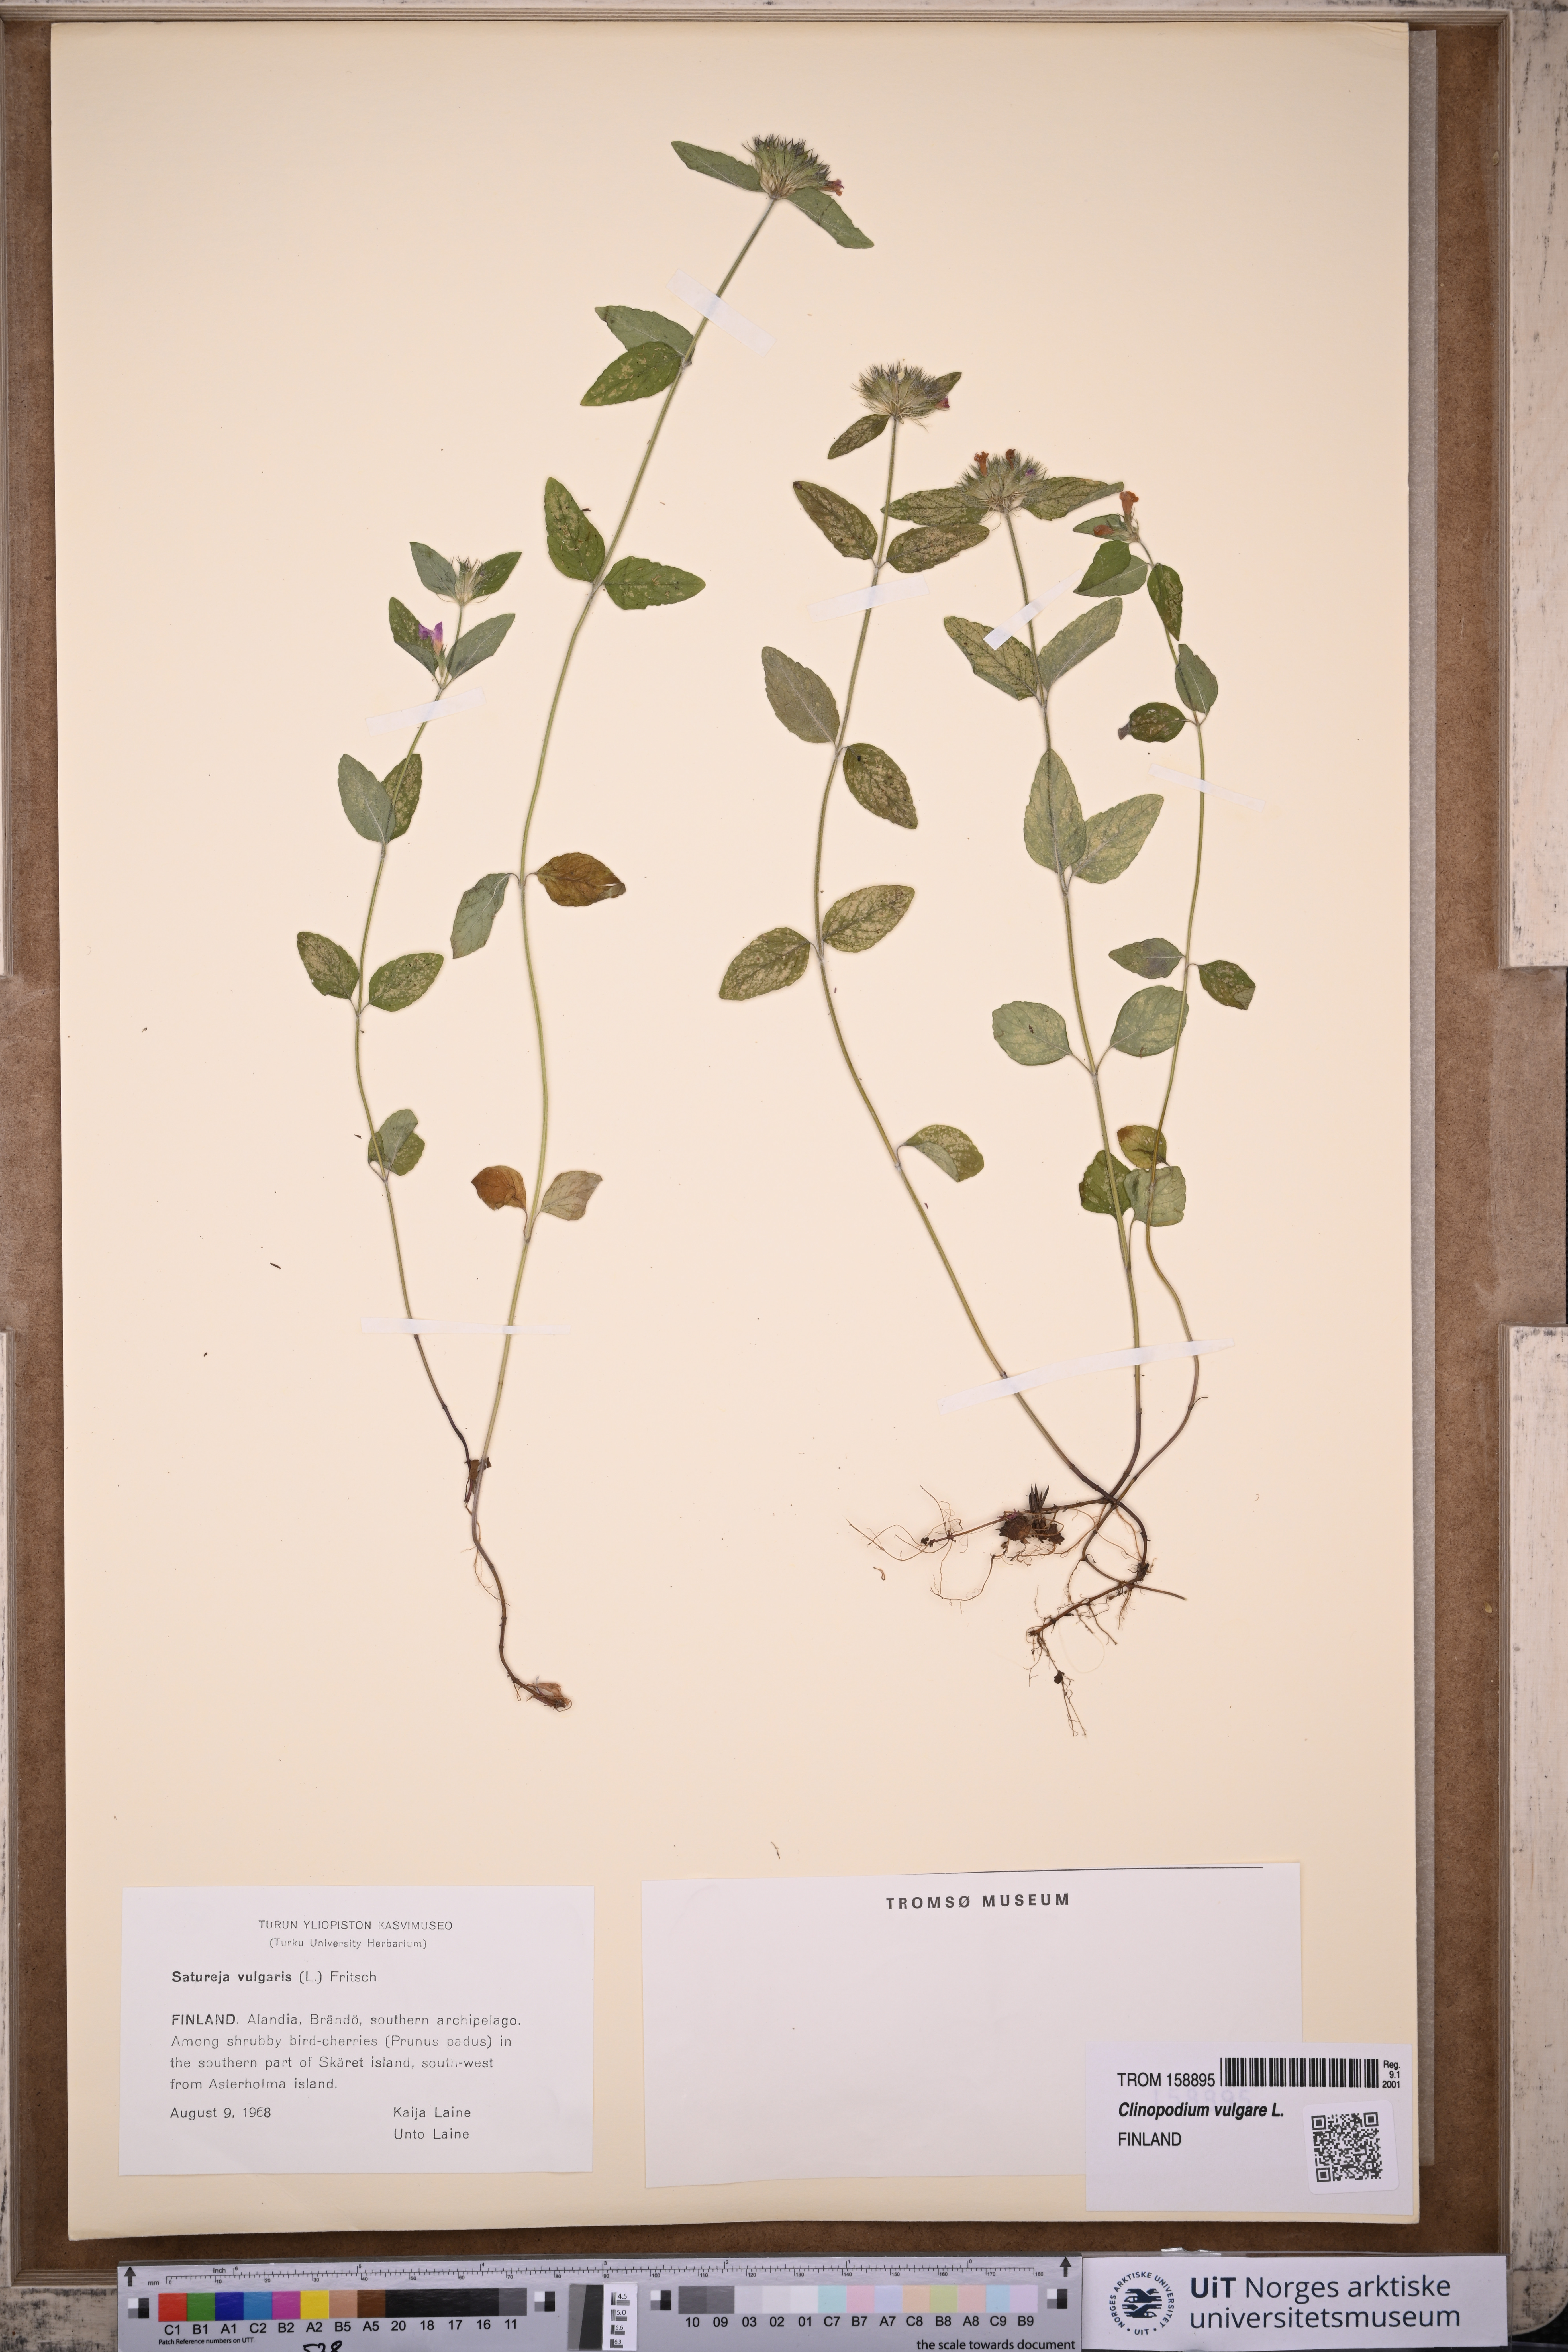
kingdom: Plantae
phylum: Tracheophyta
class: Magnoliopsida
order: Lamiales
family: Lamiaceae
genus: Clinopodium
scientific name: Clinopodium vulgare
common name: Wild basil
